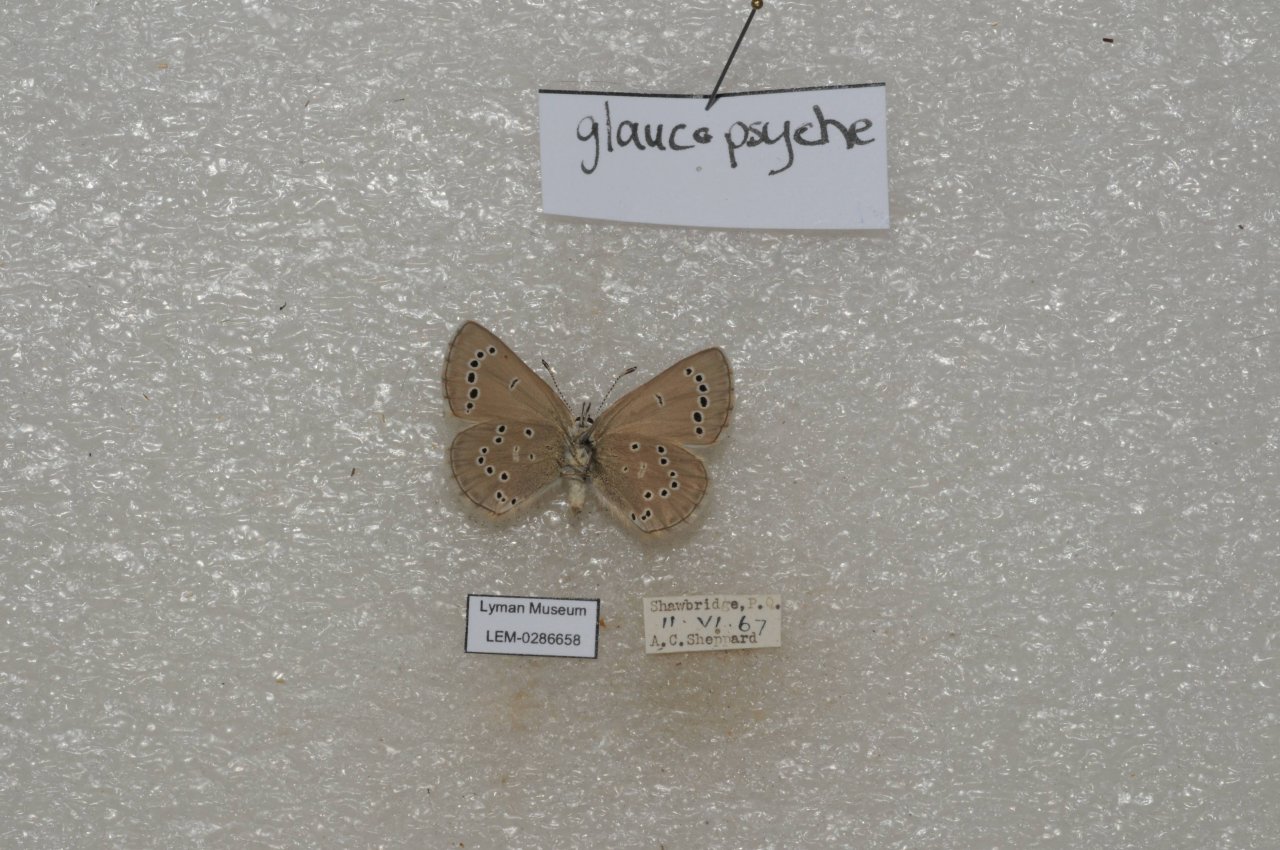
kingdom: Animalia
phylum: Arthropoda
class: Insecta
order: Lepidoptera
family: Lycaenidae
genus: Glaucopsyche
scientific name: Glaucopsyche lygdamus
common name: Silvery Blue
